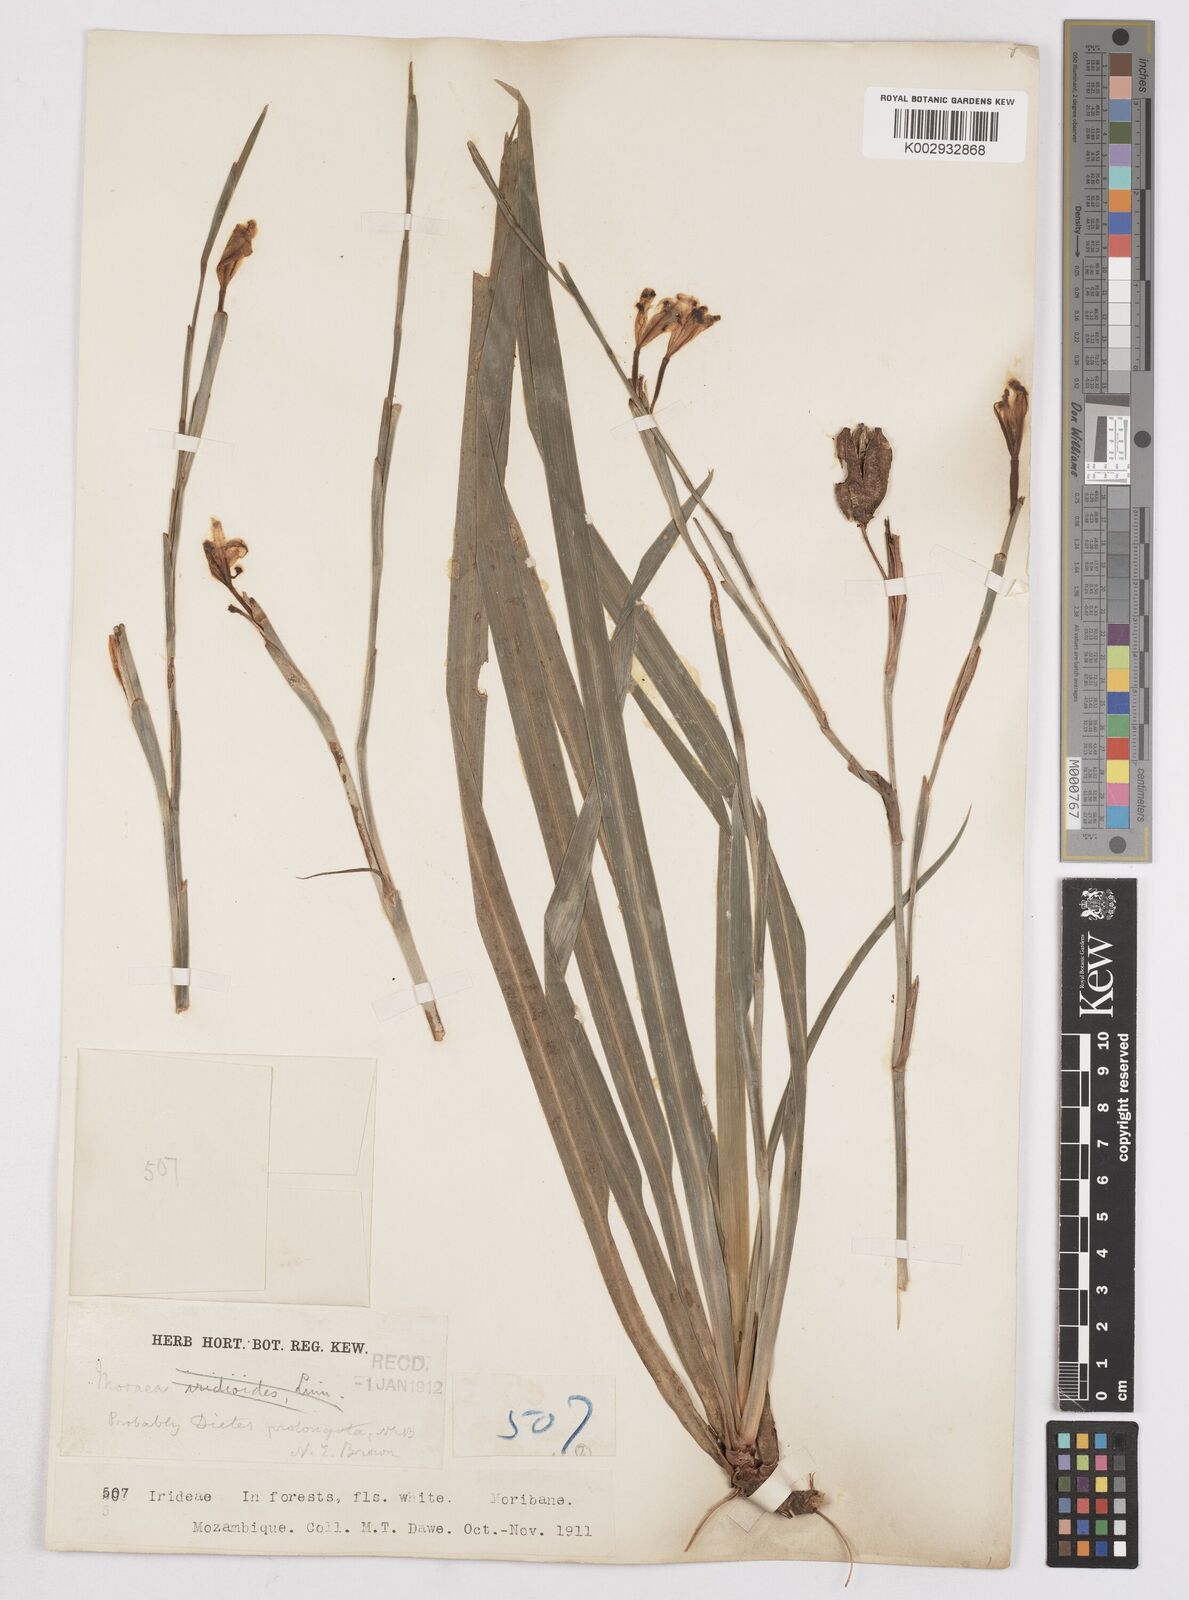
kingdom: Plantae
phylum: Tracheophyta
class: Liliopsida
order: Asparagales
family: Iridaceae
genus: Dietes
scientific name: Dietes iridioides
